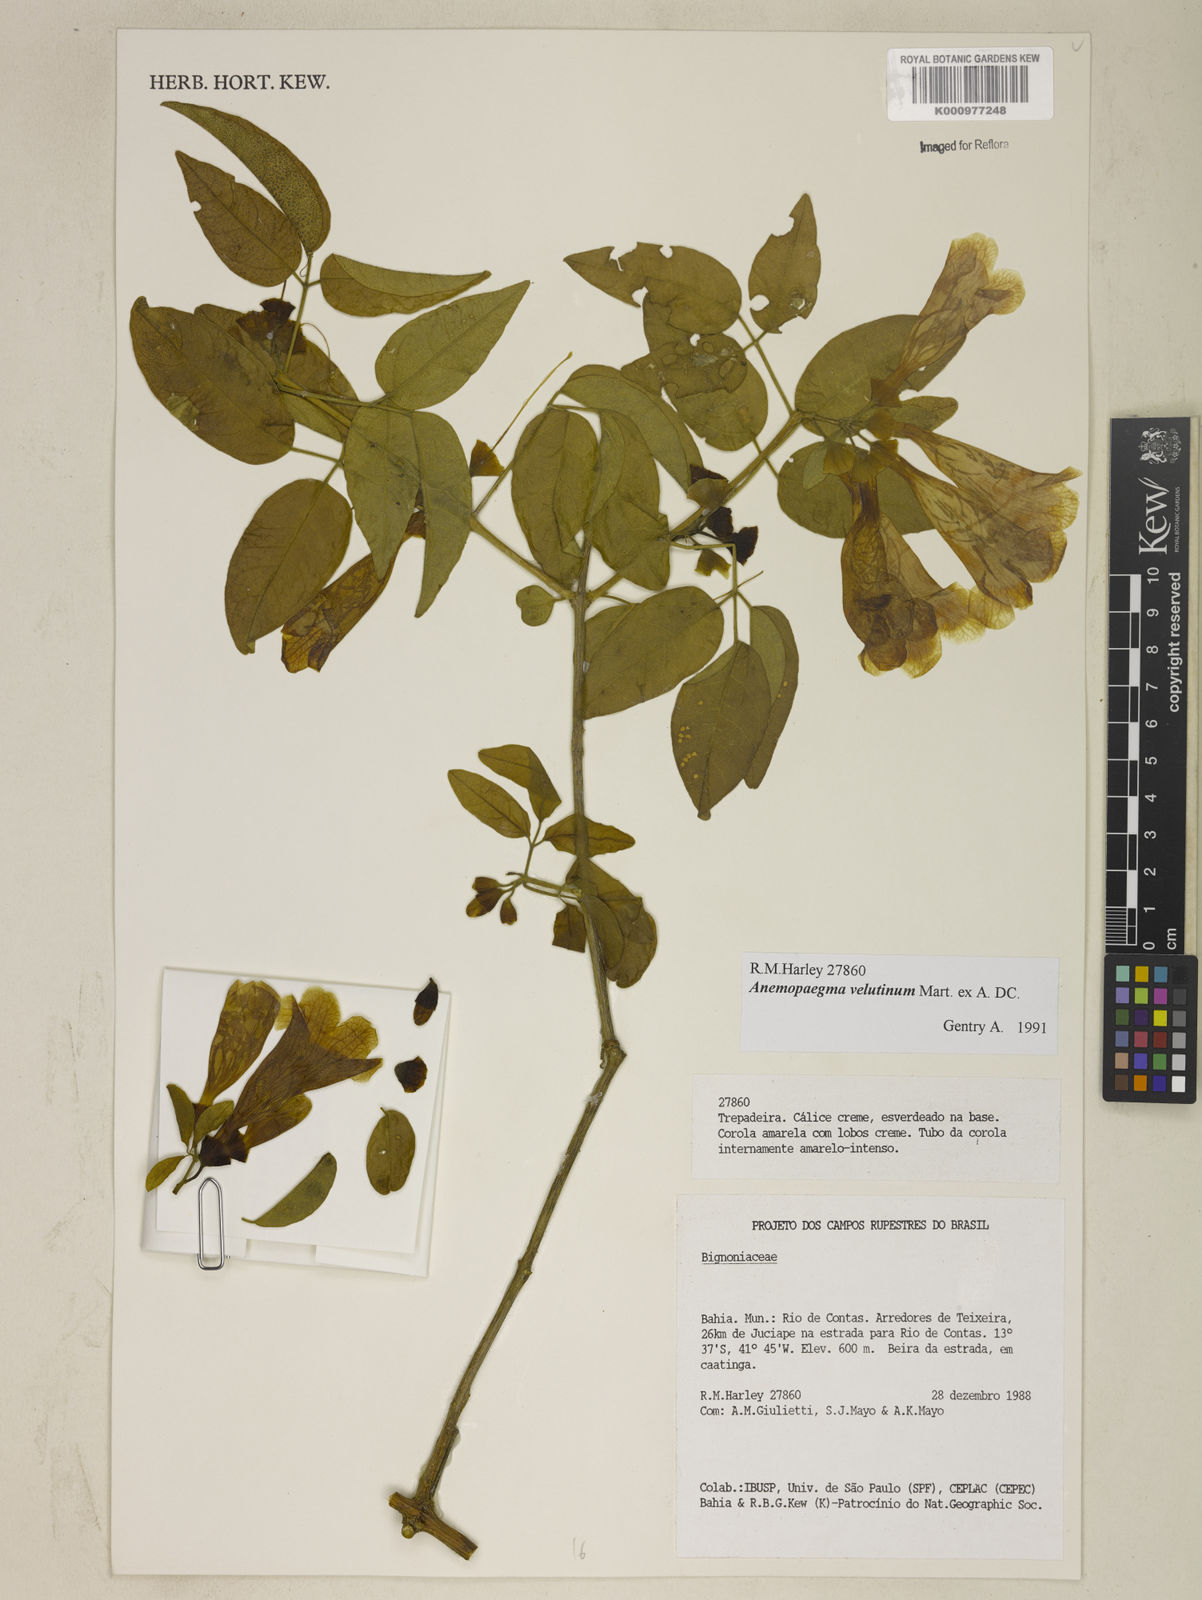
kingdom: Plantae
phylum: Tracheophyta
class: Magnoliopsida
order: Lamiales
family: Bignoniaceae
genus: Anemopaegma
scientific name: Anemopaegma velutinum
